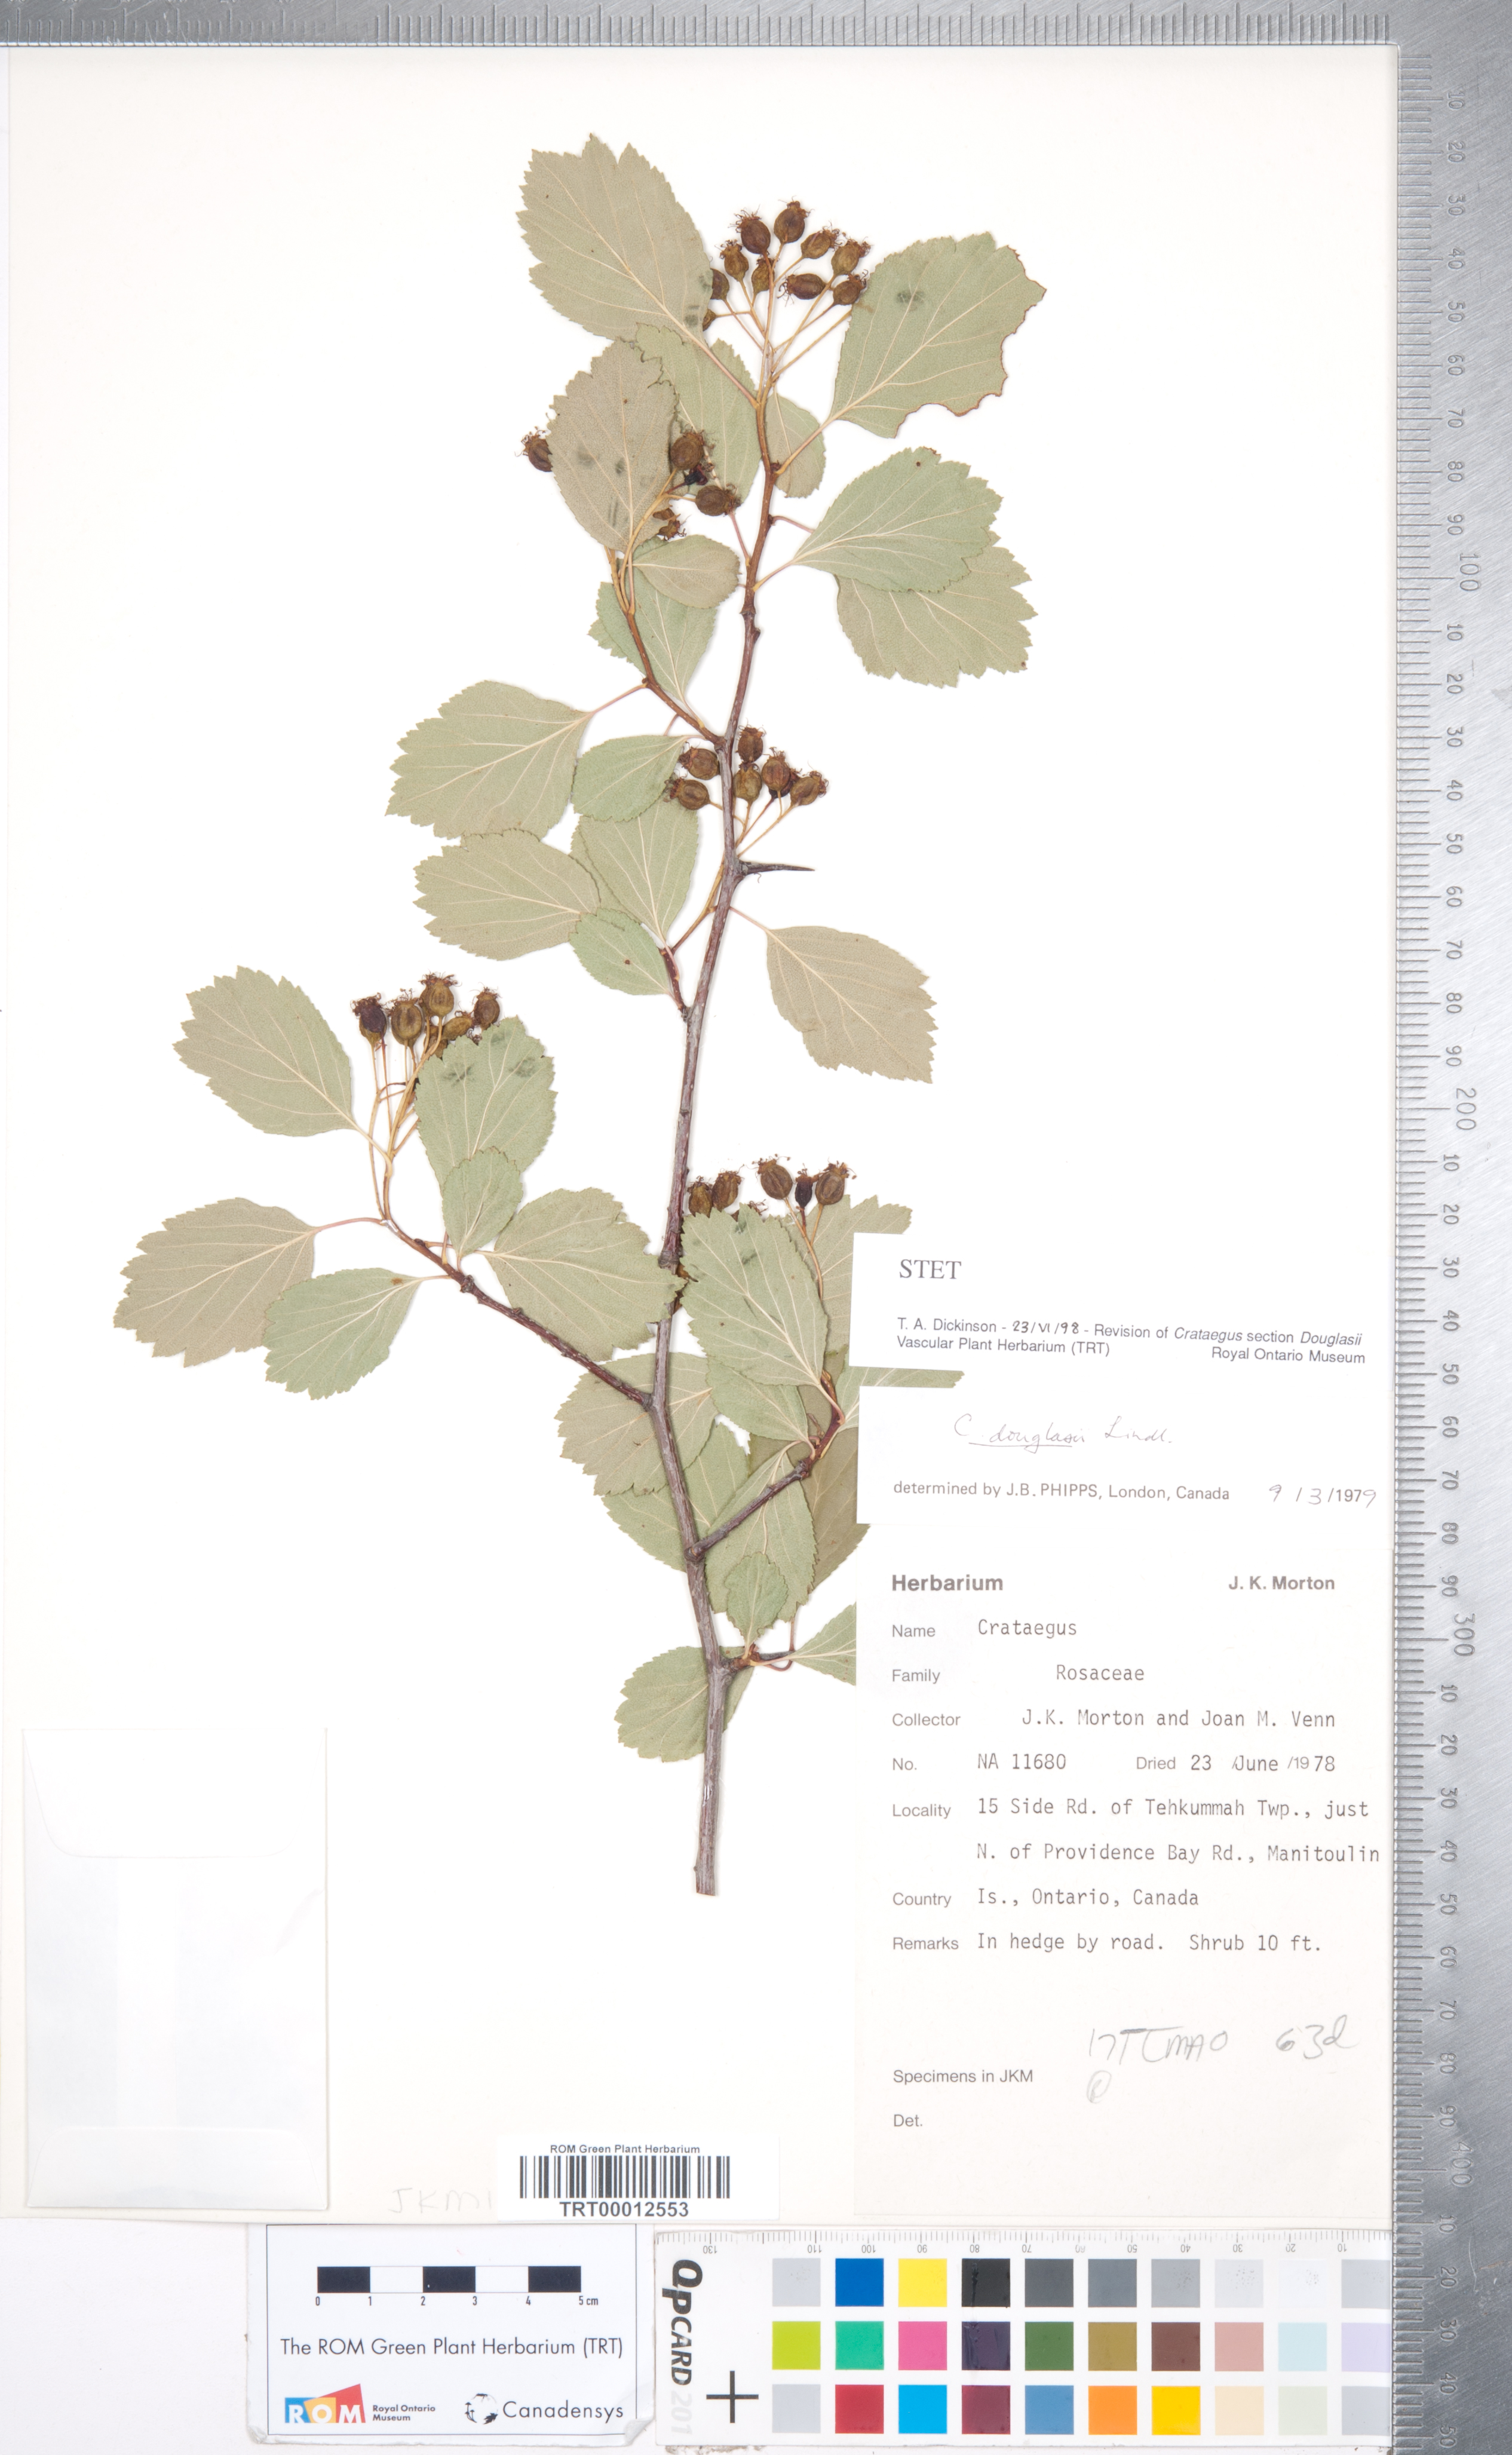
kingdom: Plantae
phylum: Tracheophyta
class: Magnoliopsida
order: Rosales
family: Rosaceae
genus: Crataegus
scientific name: Crataegus douglasii
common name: Black hawthorn
